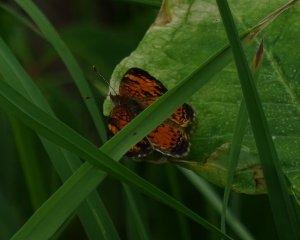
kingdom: Animalia
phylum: Arthropoda
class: Insecta
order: Lepidoptera
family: Nymphalidae
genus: Phyciodes
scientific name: Phyciodes tharos
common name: Northern Crescent
